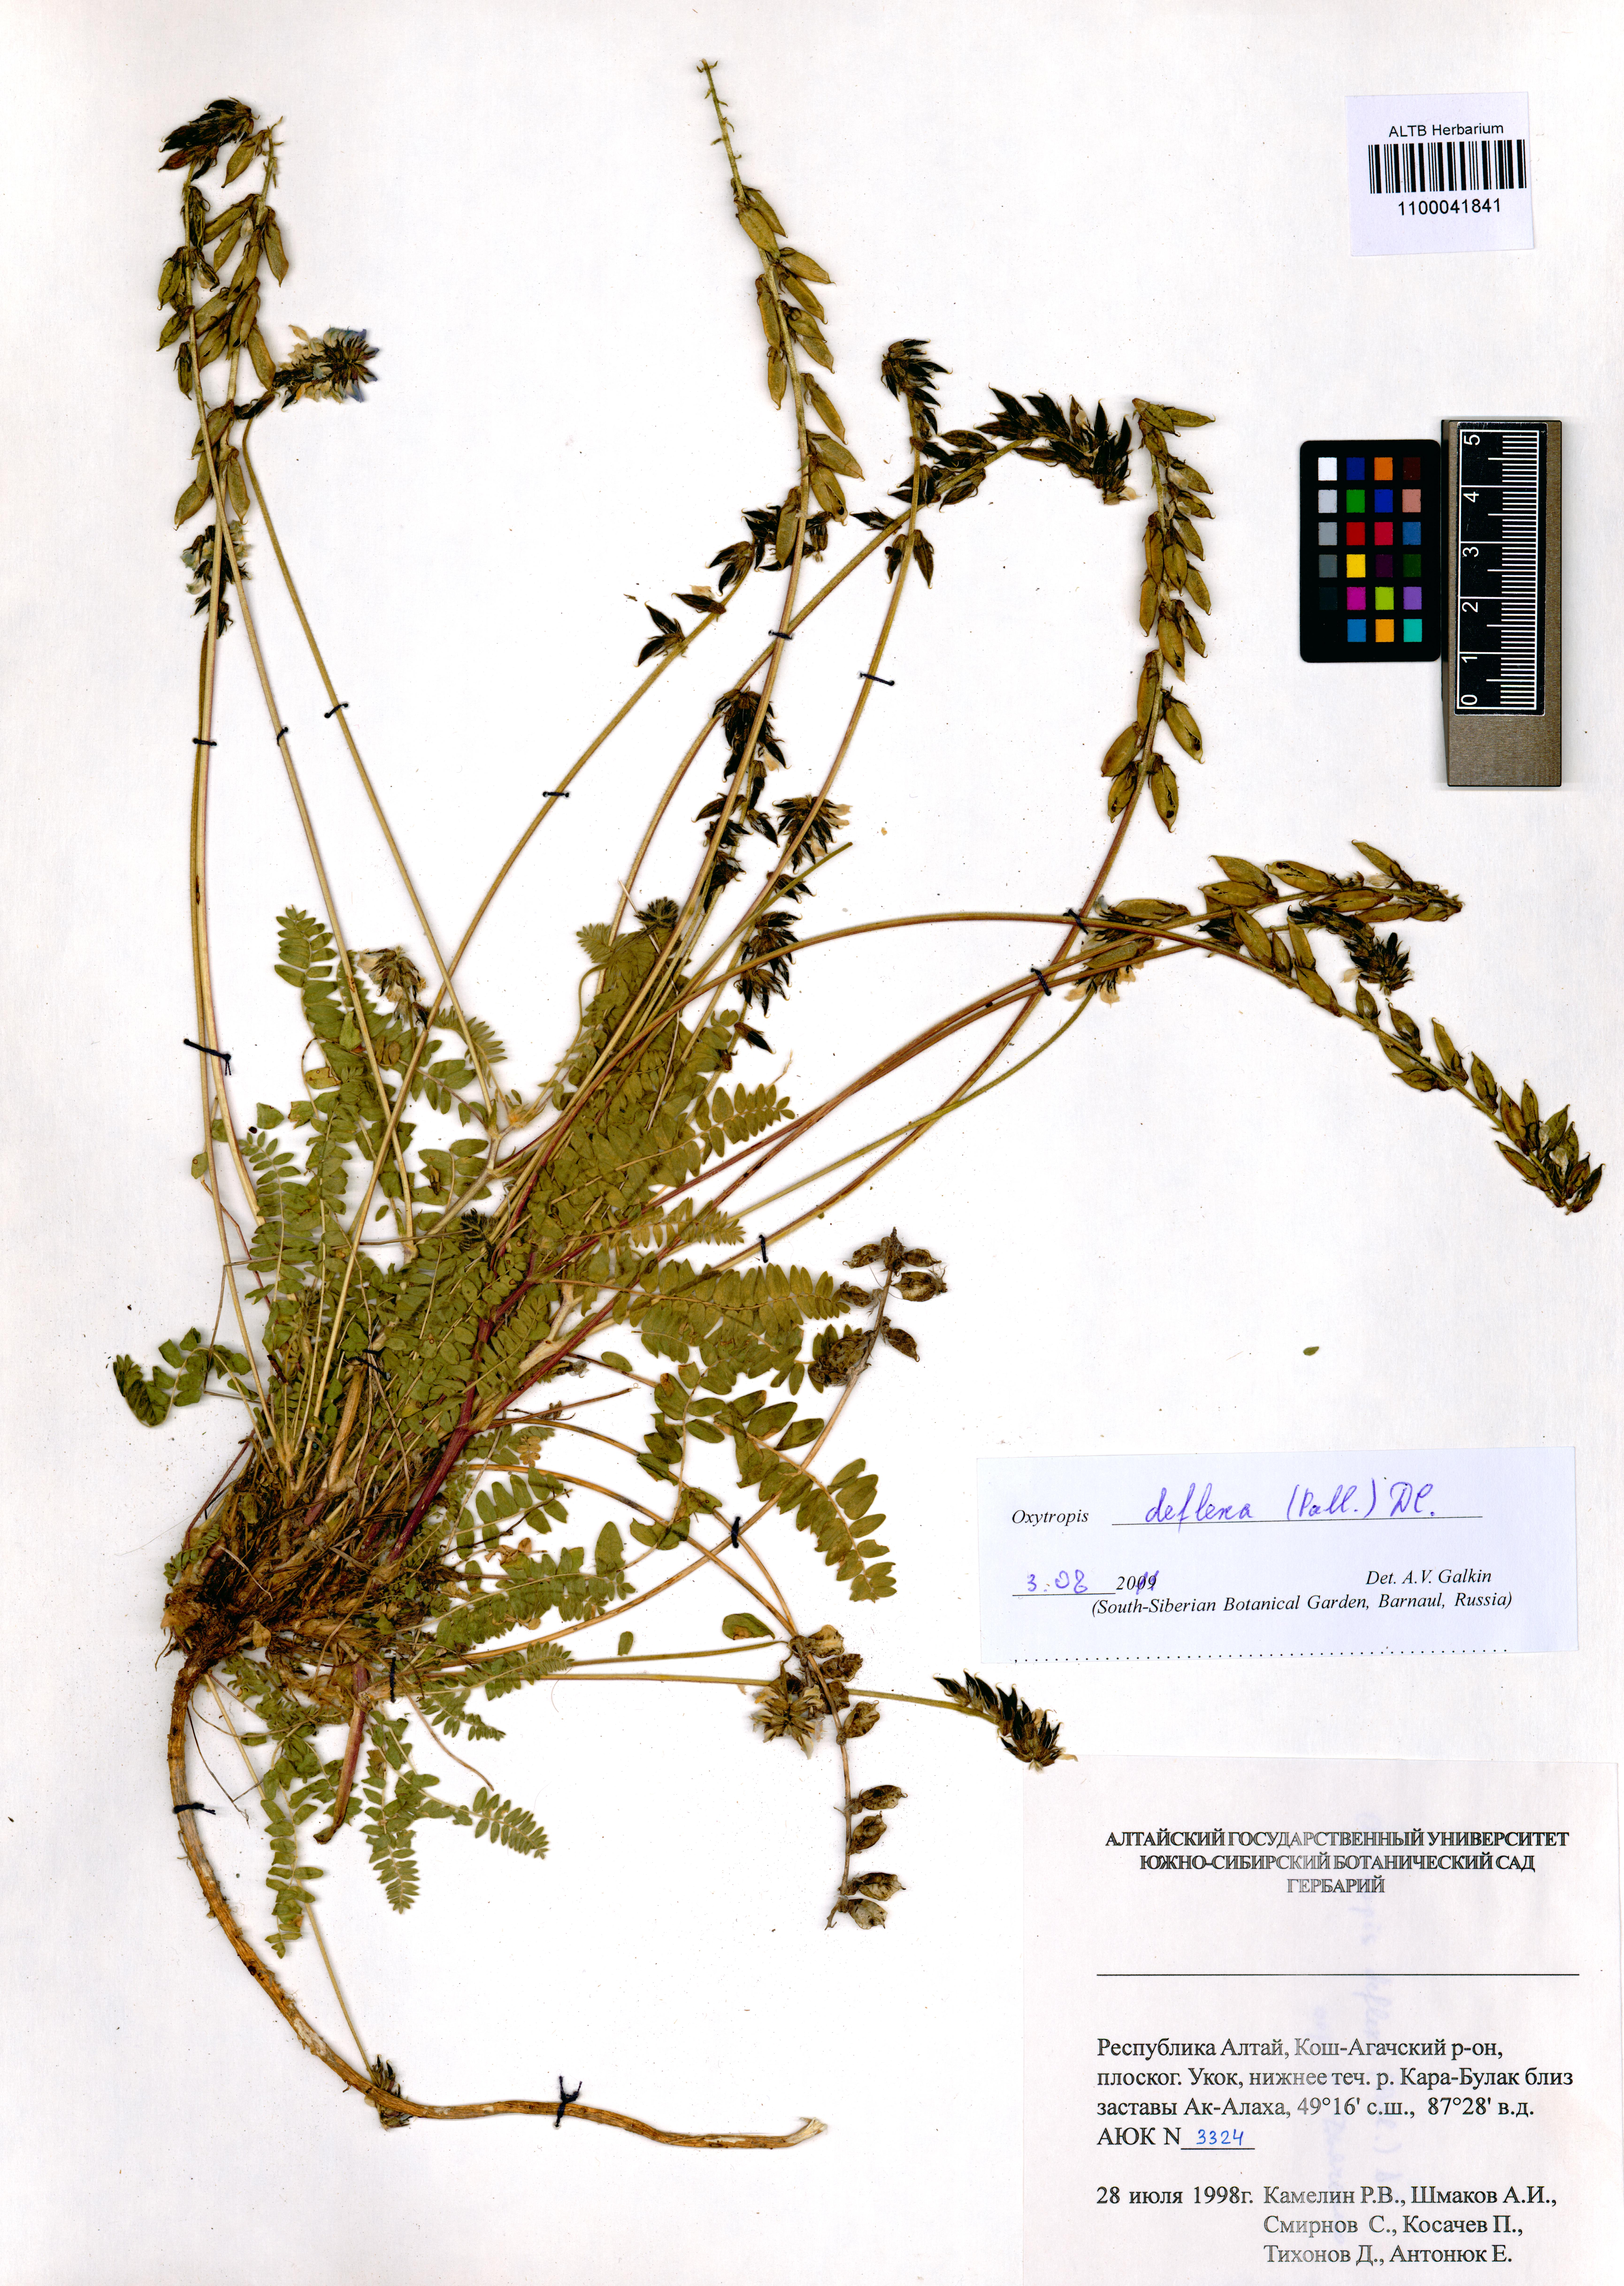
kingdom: Plantae
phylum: Tracheophyta
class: Magnoliopsida
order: Fabales
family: Fabaceae
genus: Oxytropis
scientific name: Oxytropis deflexa
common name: Stemmed oxytrope
